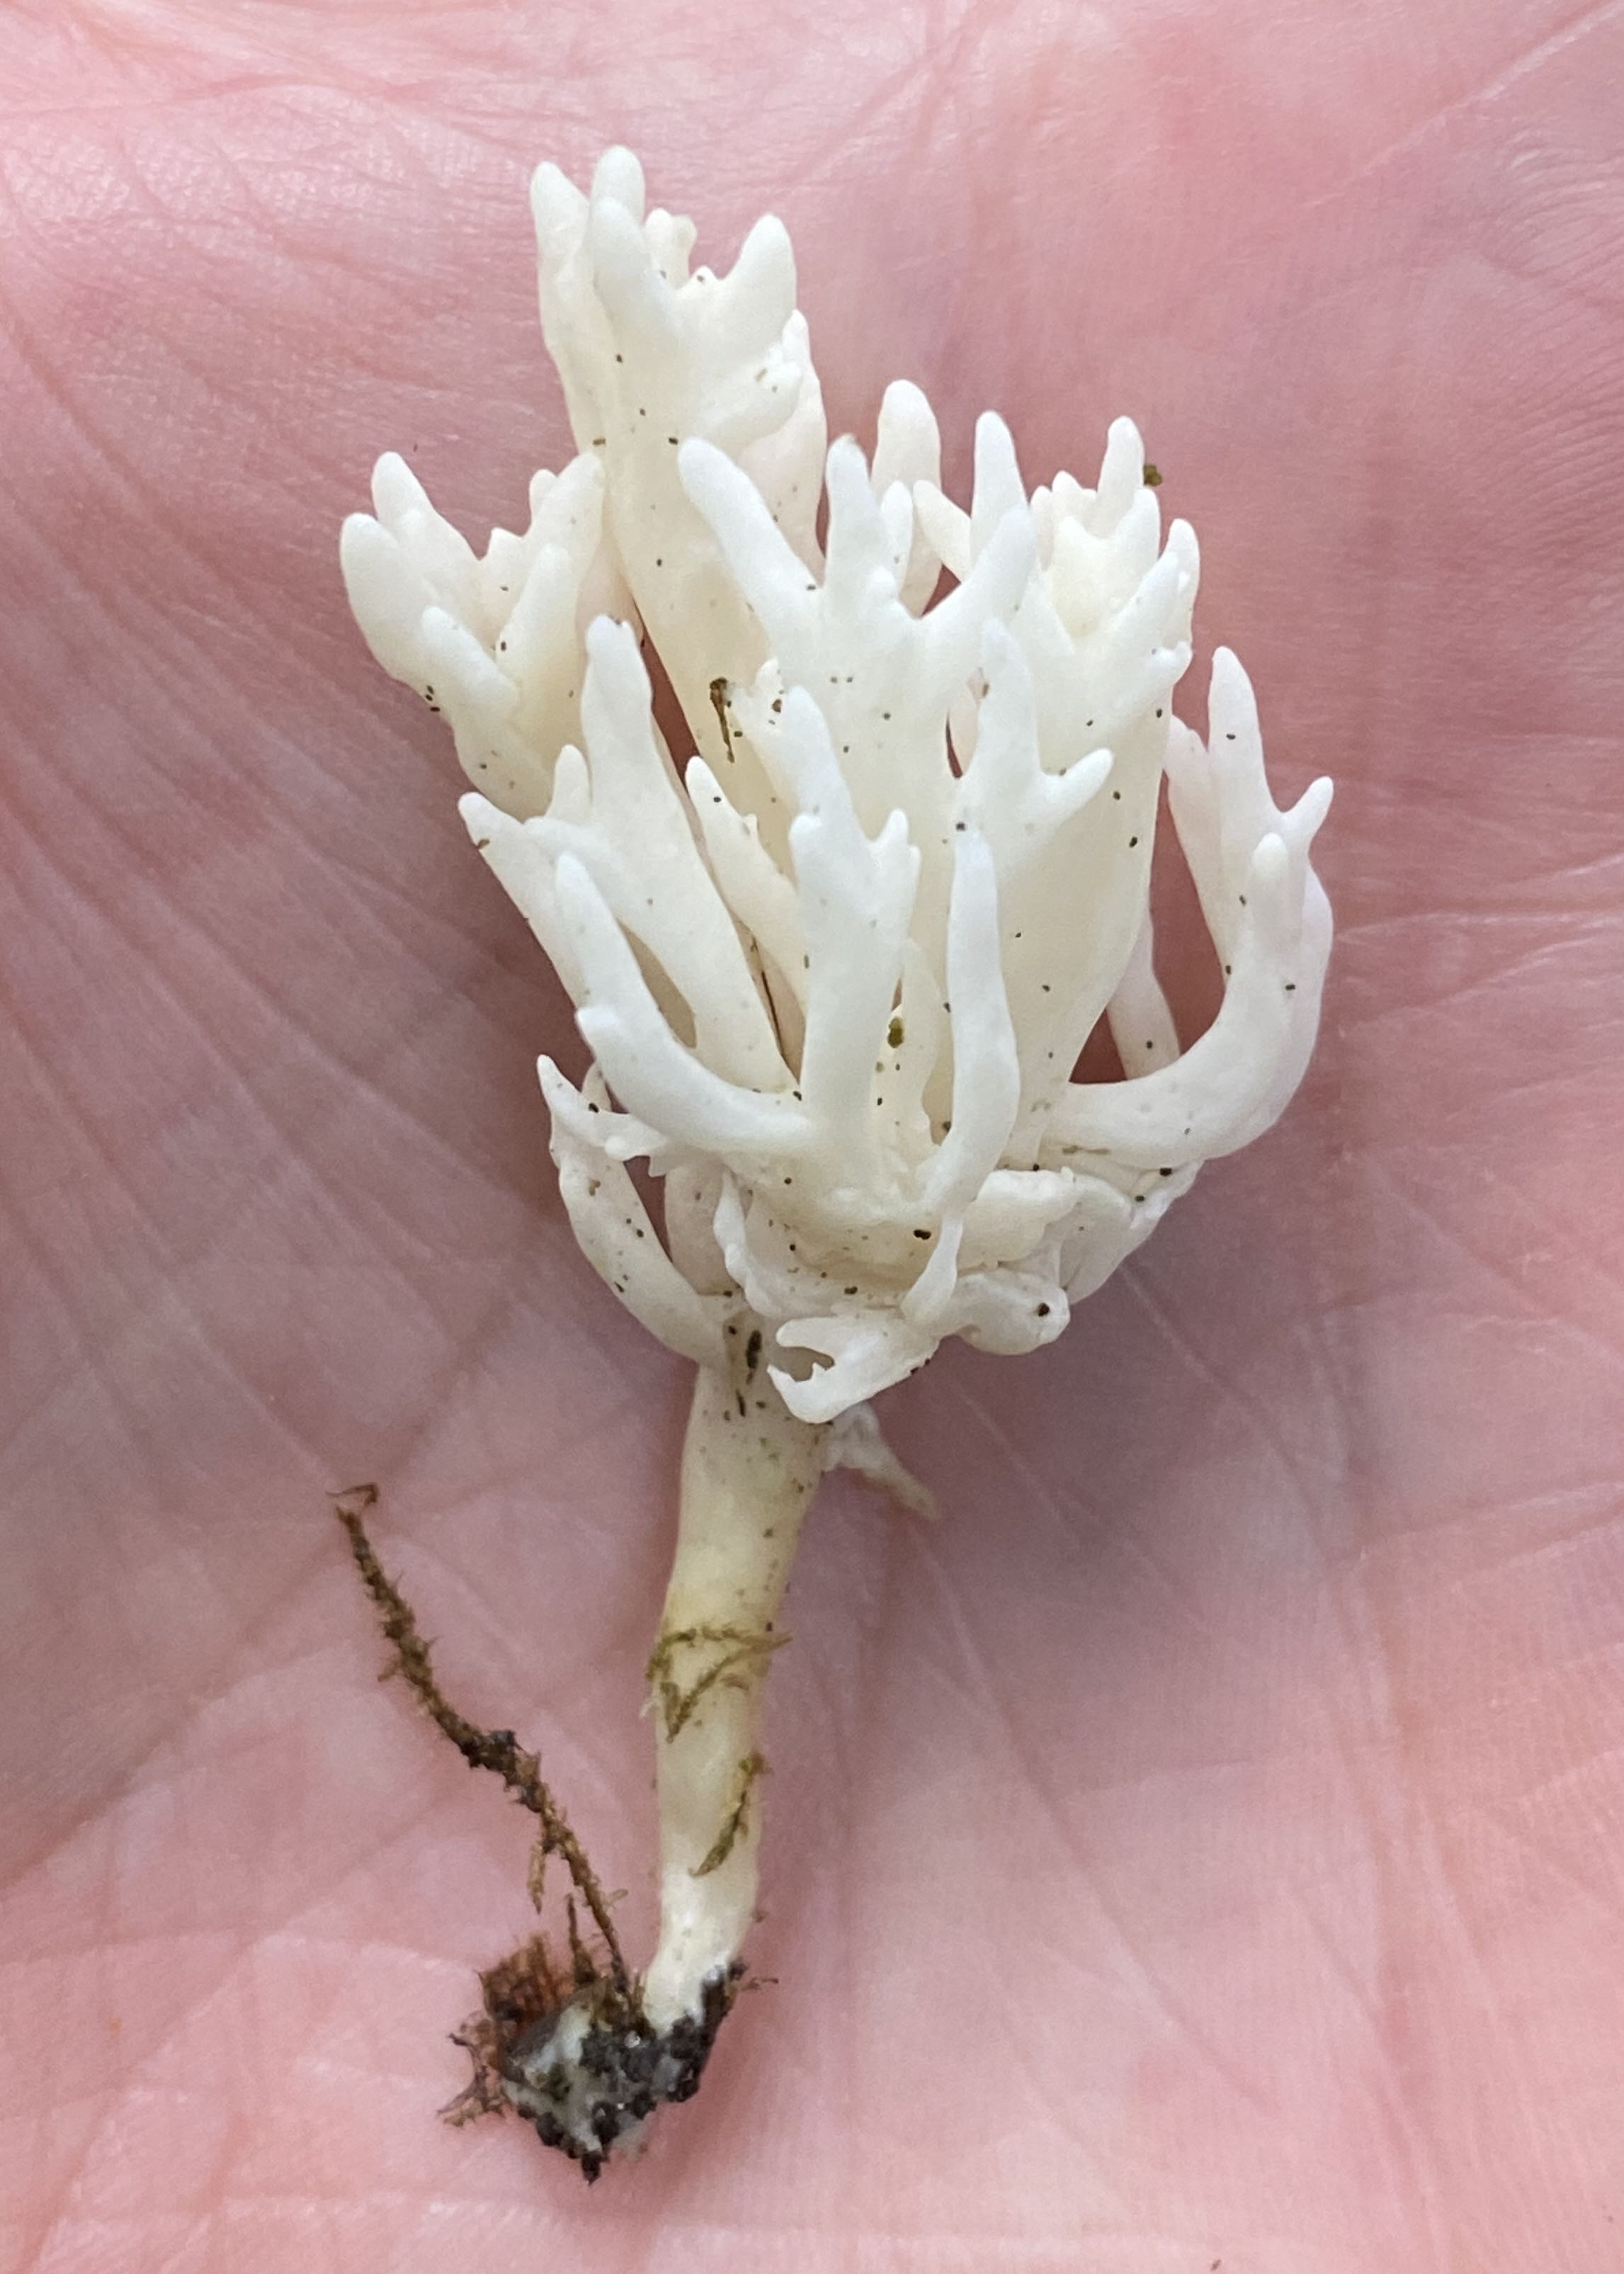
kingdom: Fungi
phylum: Basidiomycota
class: Agaricomycetes
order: Cantharellales
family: Hydnaceae
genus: Clavulina
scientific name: Clavulina
